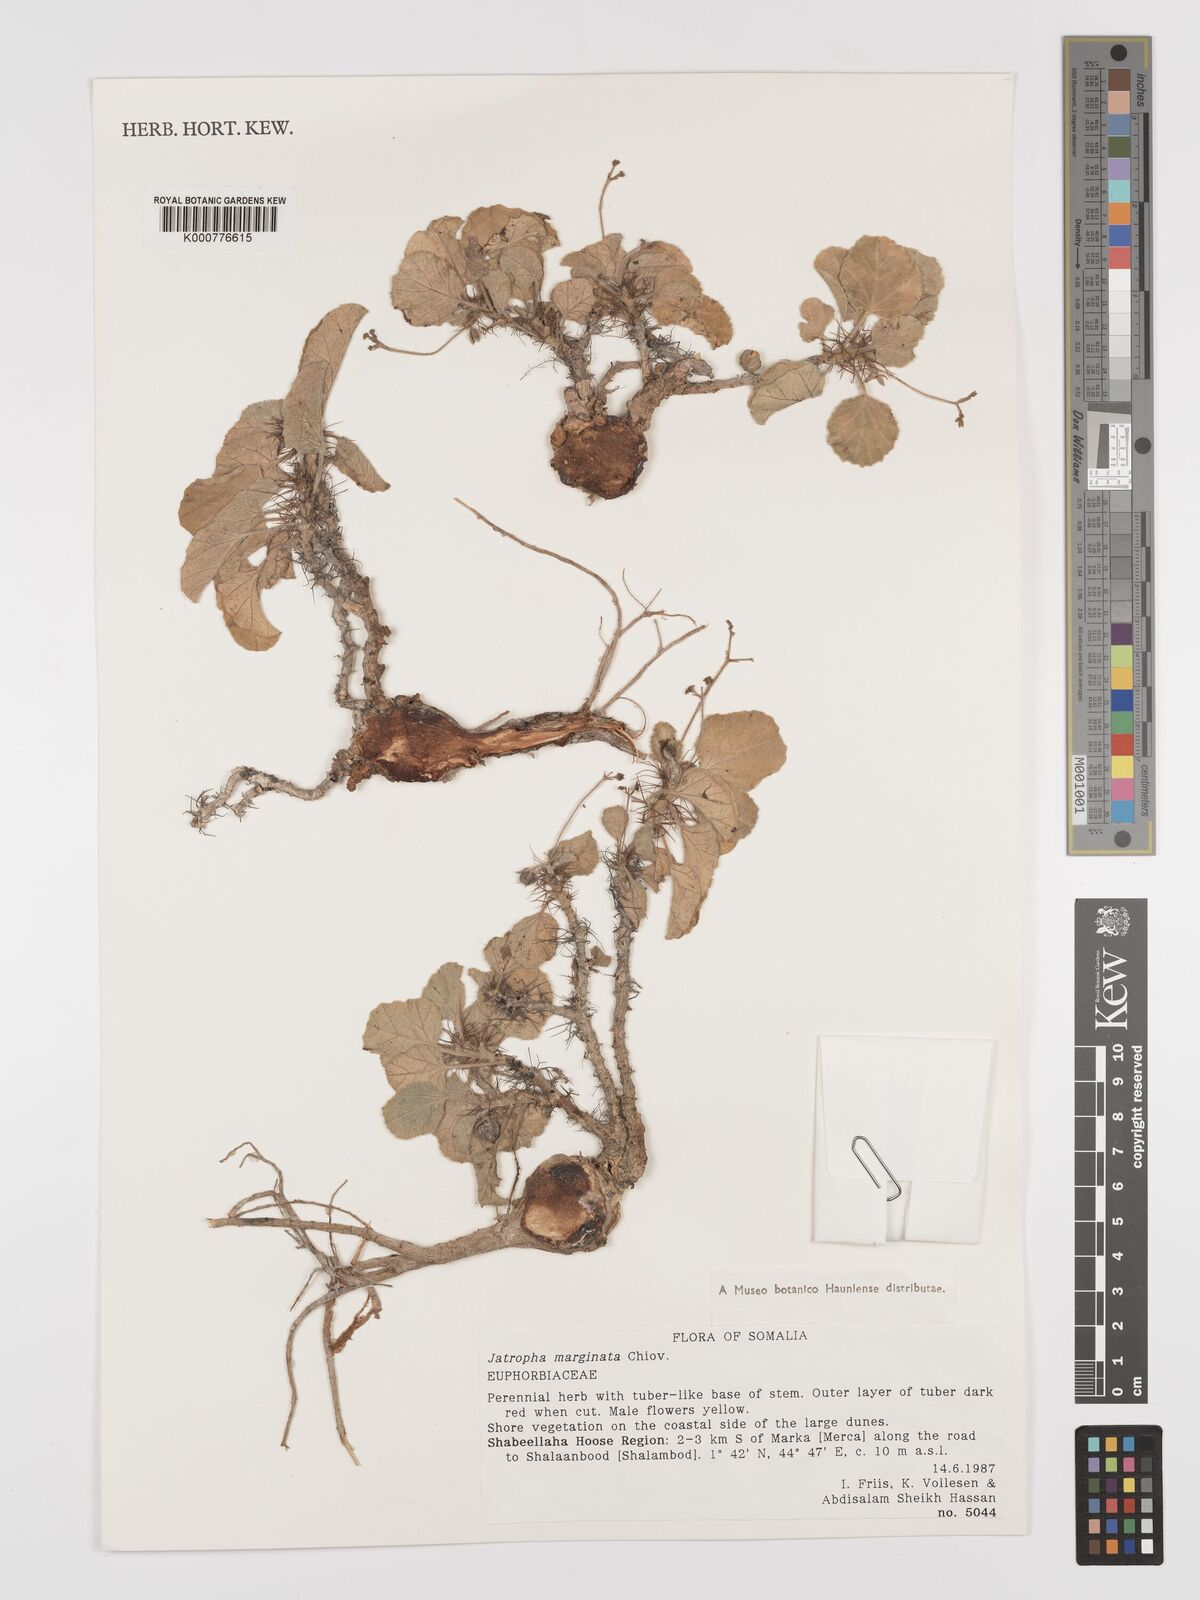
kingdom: Plantae
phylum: Tracheophyta
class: Magnoliopsida
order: Malpighiales
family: Euphorbiaceae
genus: Jatropha
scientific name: Jatropha
